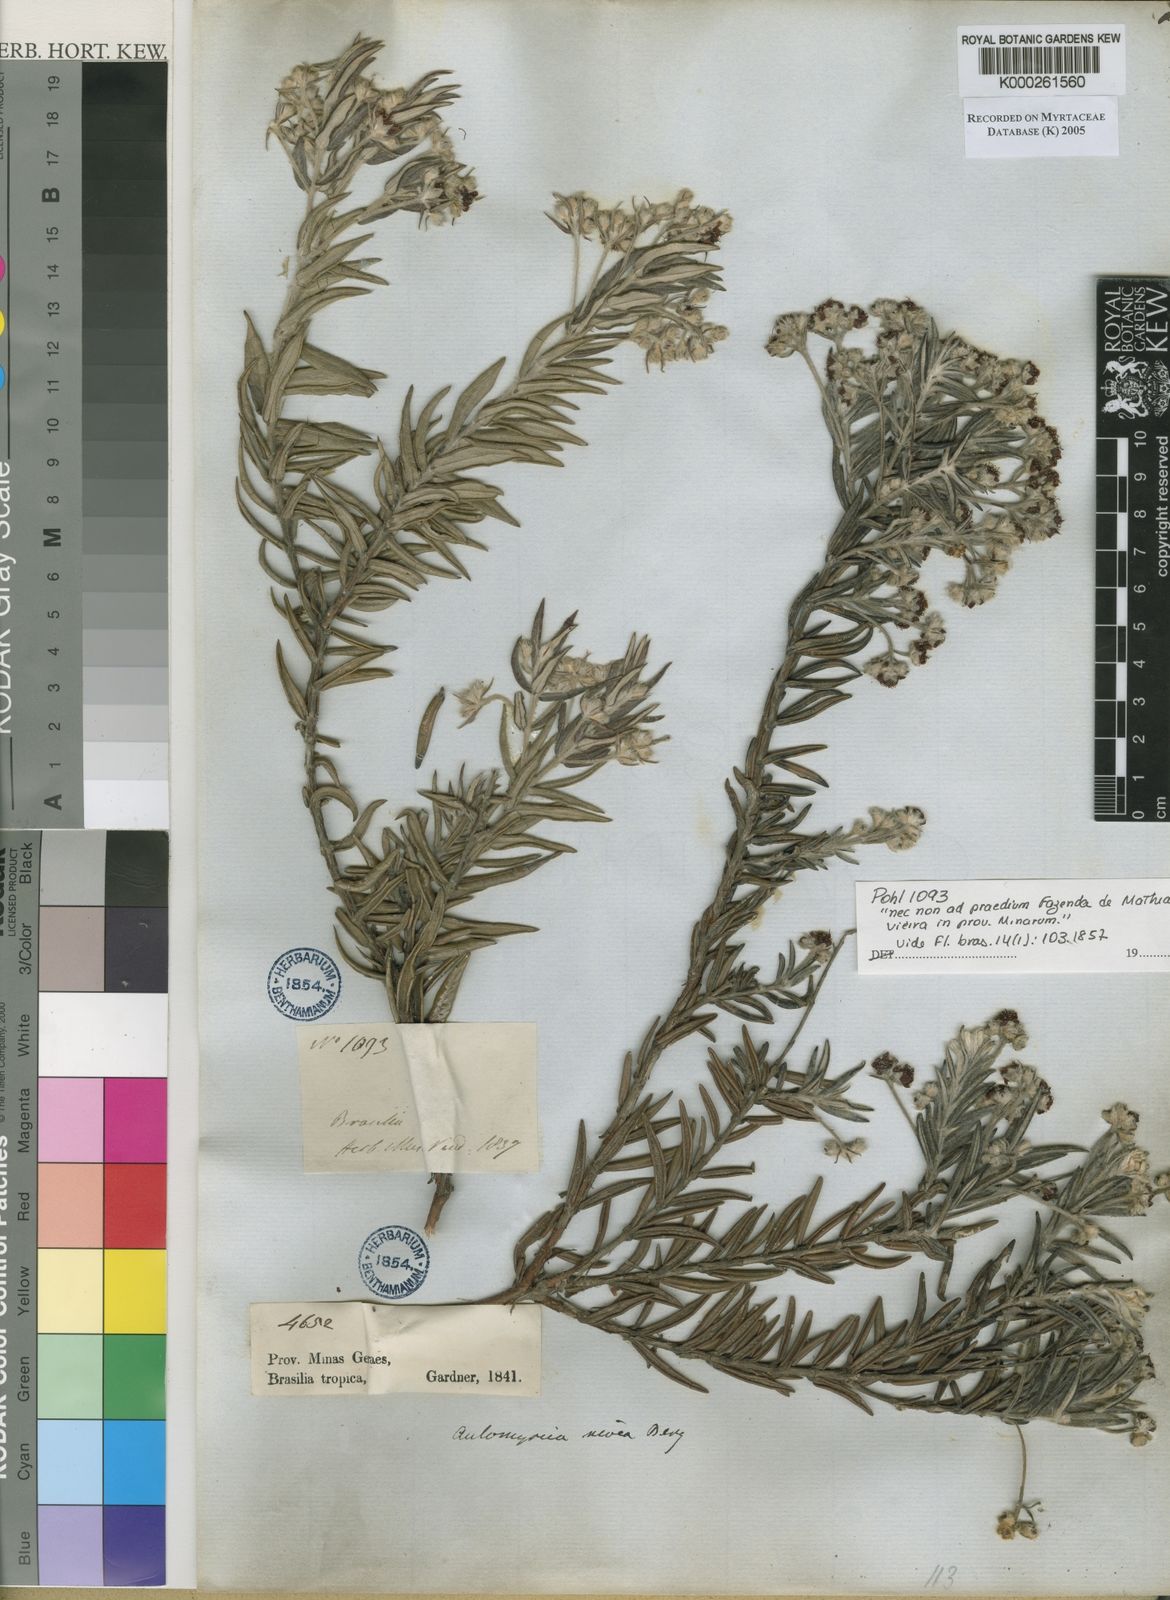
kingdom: Plantae
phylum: Tracheophyta
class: Magnoliopsida
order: Myrtales
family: Myrtaceae
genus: Myrcia
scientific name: Myrcia nivea
